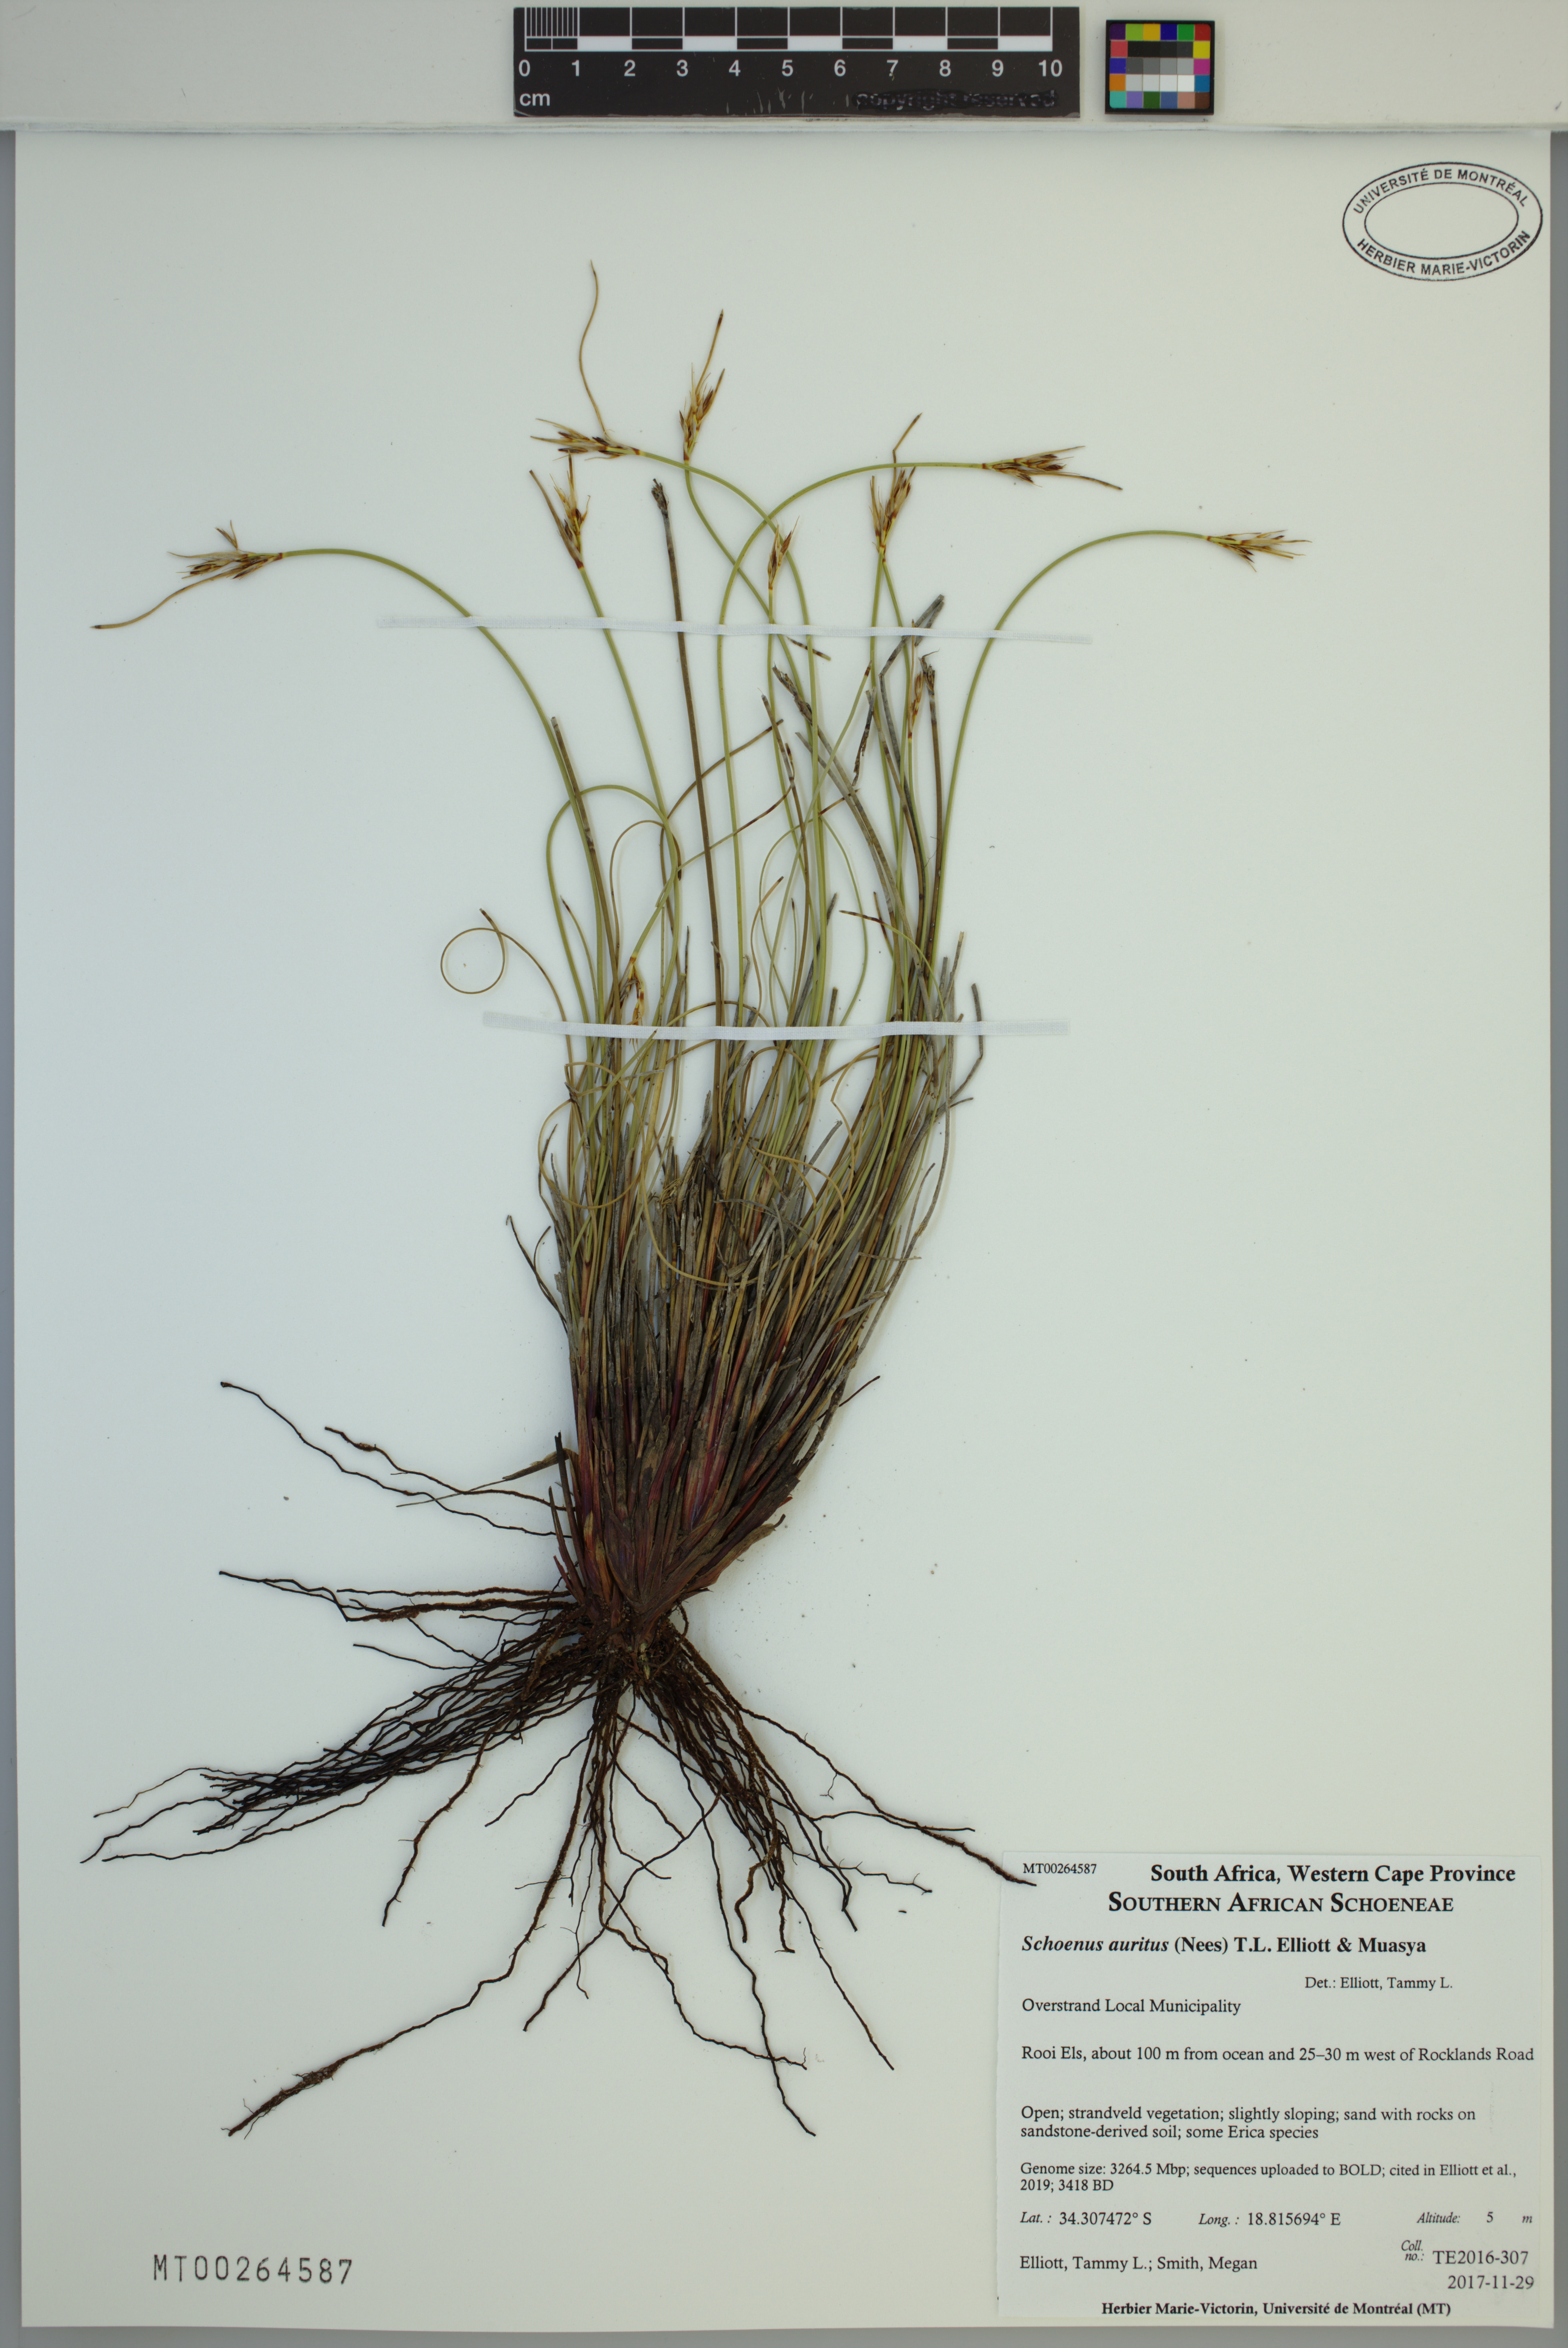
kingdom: Plantae
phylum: Tracheophyta
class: Liliopsida
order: Poales
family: Cyperaceae
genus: Schoenus
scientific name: Schoenus auritus
